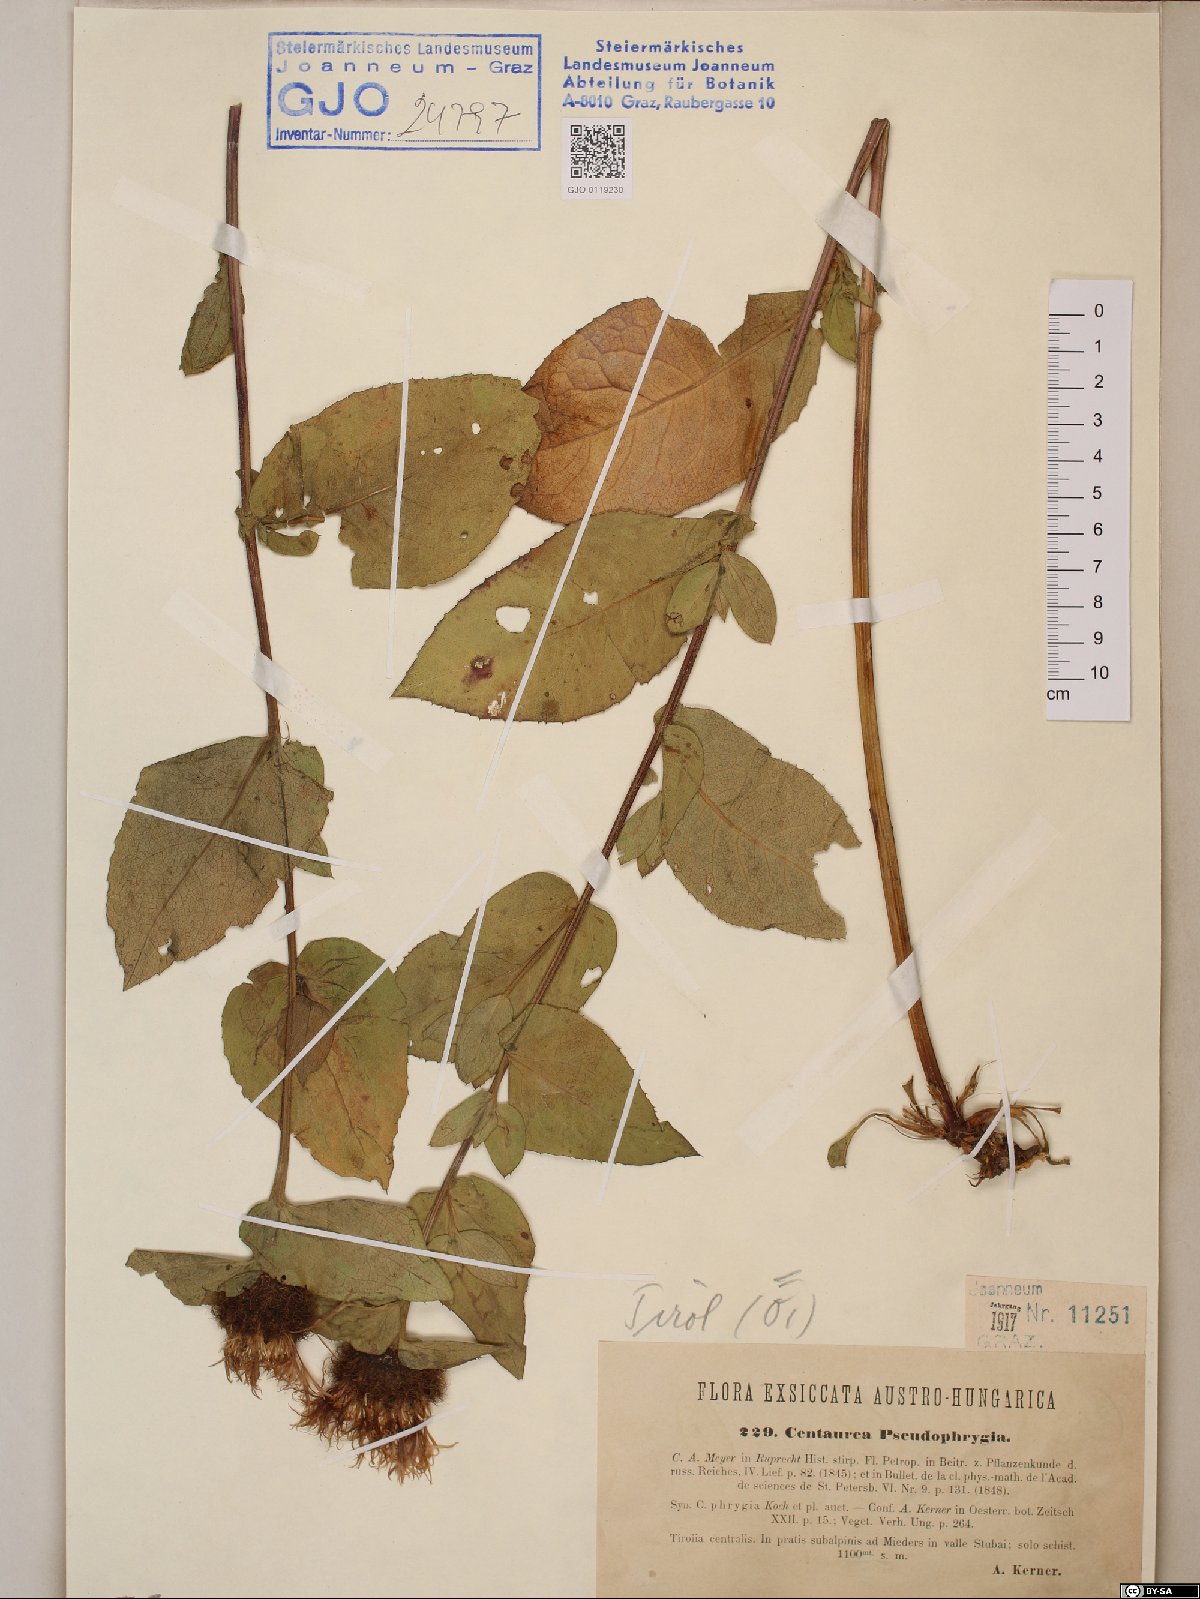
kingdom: Plantae
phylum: Tracheophyta
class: Magnoliopsida
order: Asterales
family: Asteraceae
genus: Centaurea
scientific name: Centaurea pseudophrygia
